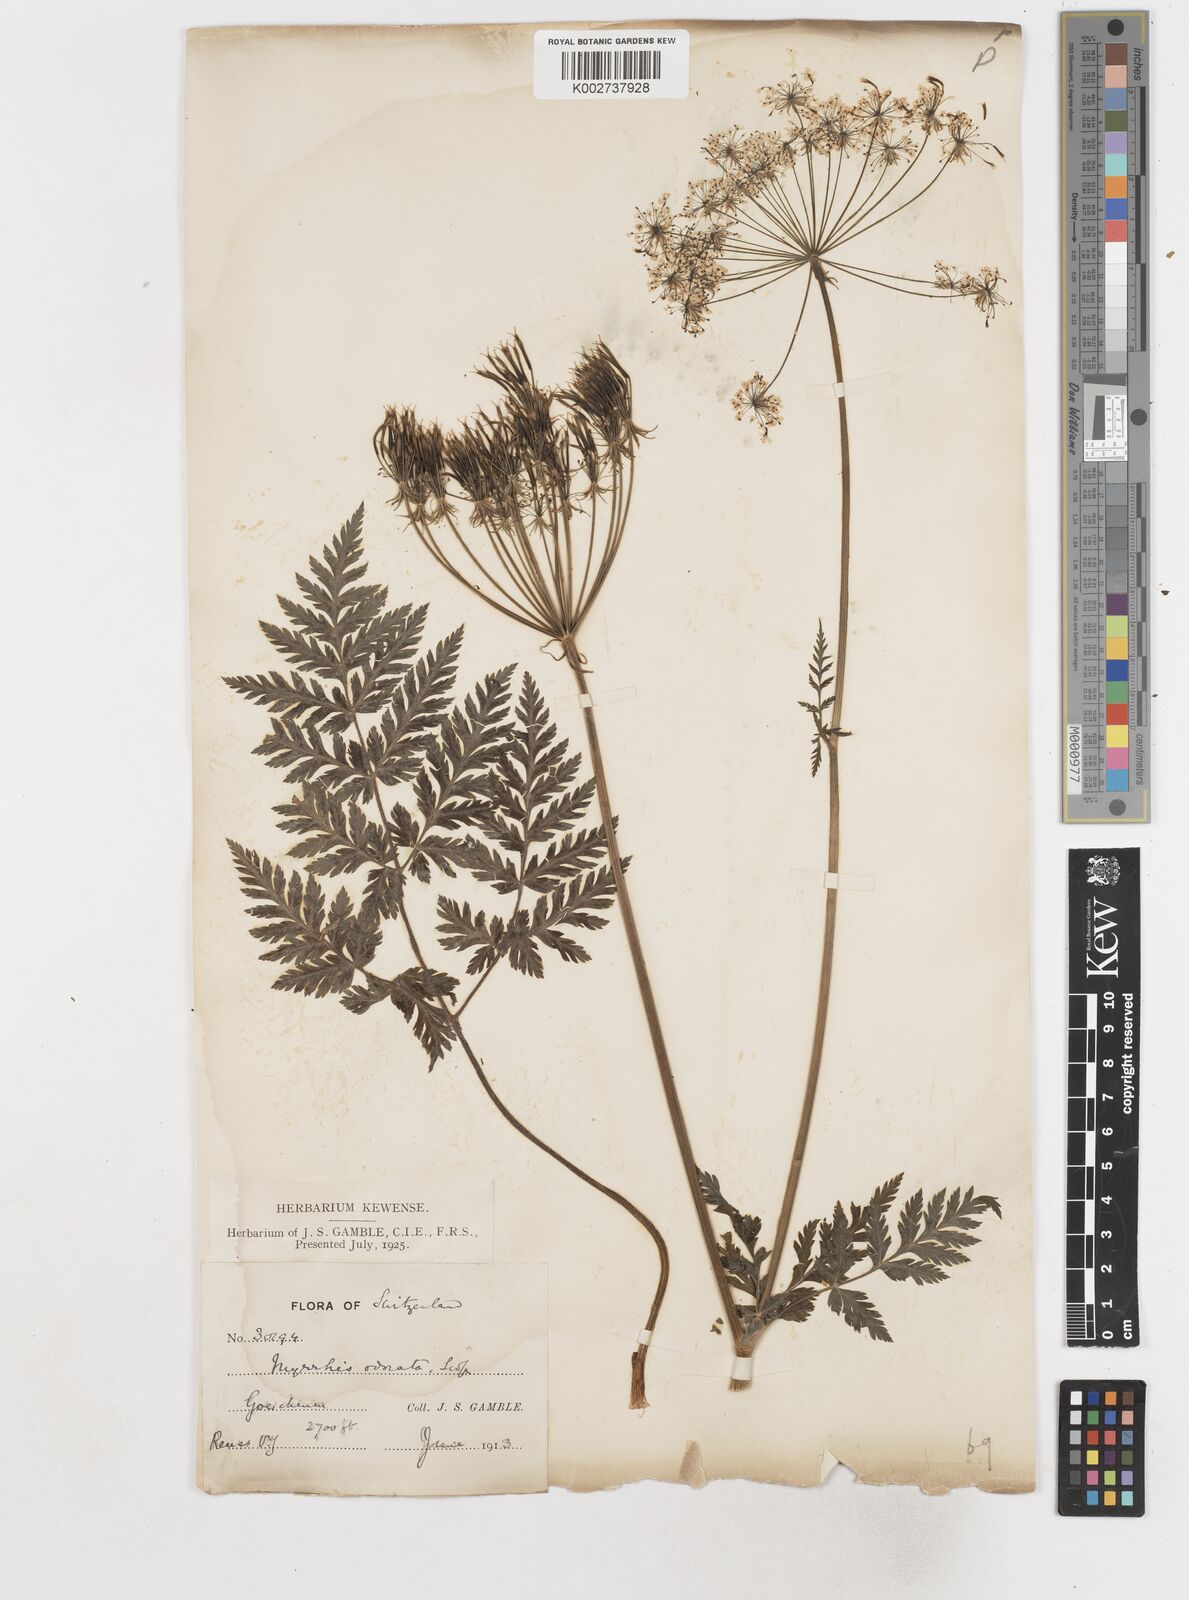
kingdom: Plantae
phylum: Tracheophyta
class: Magnoliopsida
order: Apiales
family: Apiaceae
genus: Myrrhis
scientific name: Myrrhis odorata
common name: Sweet cicely
